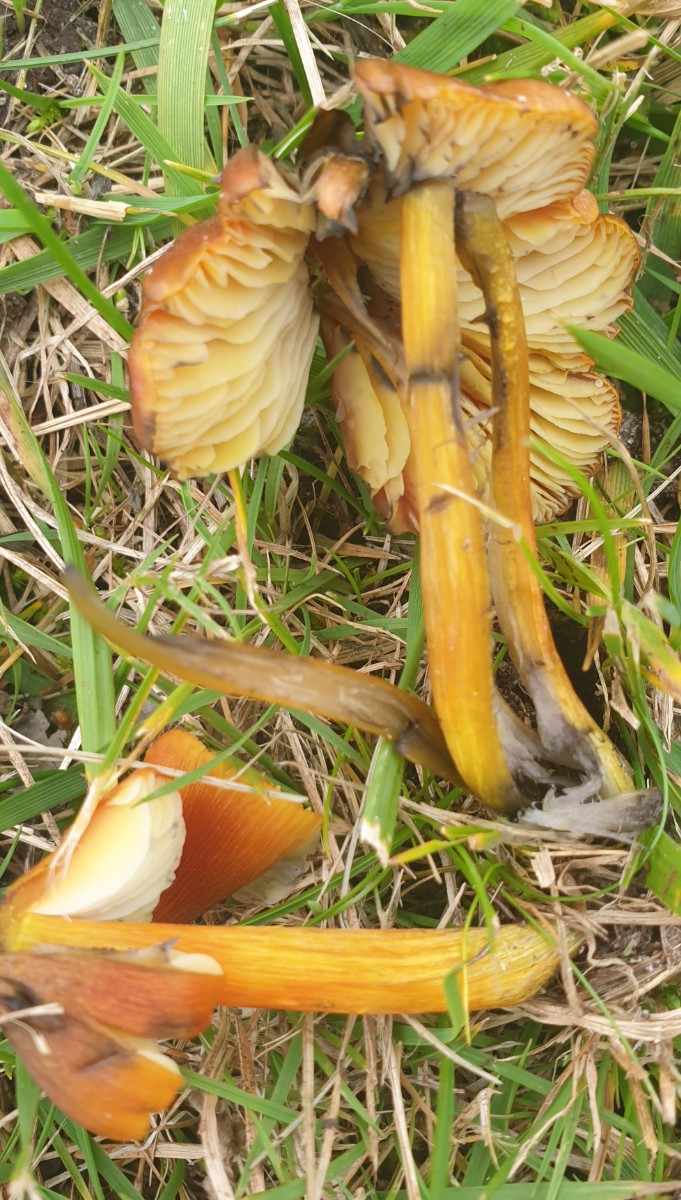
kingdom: Fungi
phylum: Basidiomycota
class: Agaricomycetes
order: Agaricales
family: Hygrophoraceae
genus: Hygrocybe
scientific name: Hygrocybe conica
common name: kegle-vokshat
